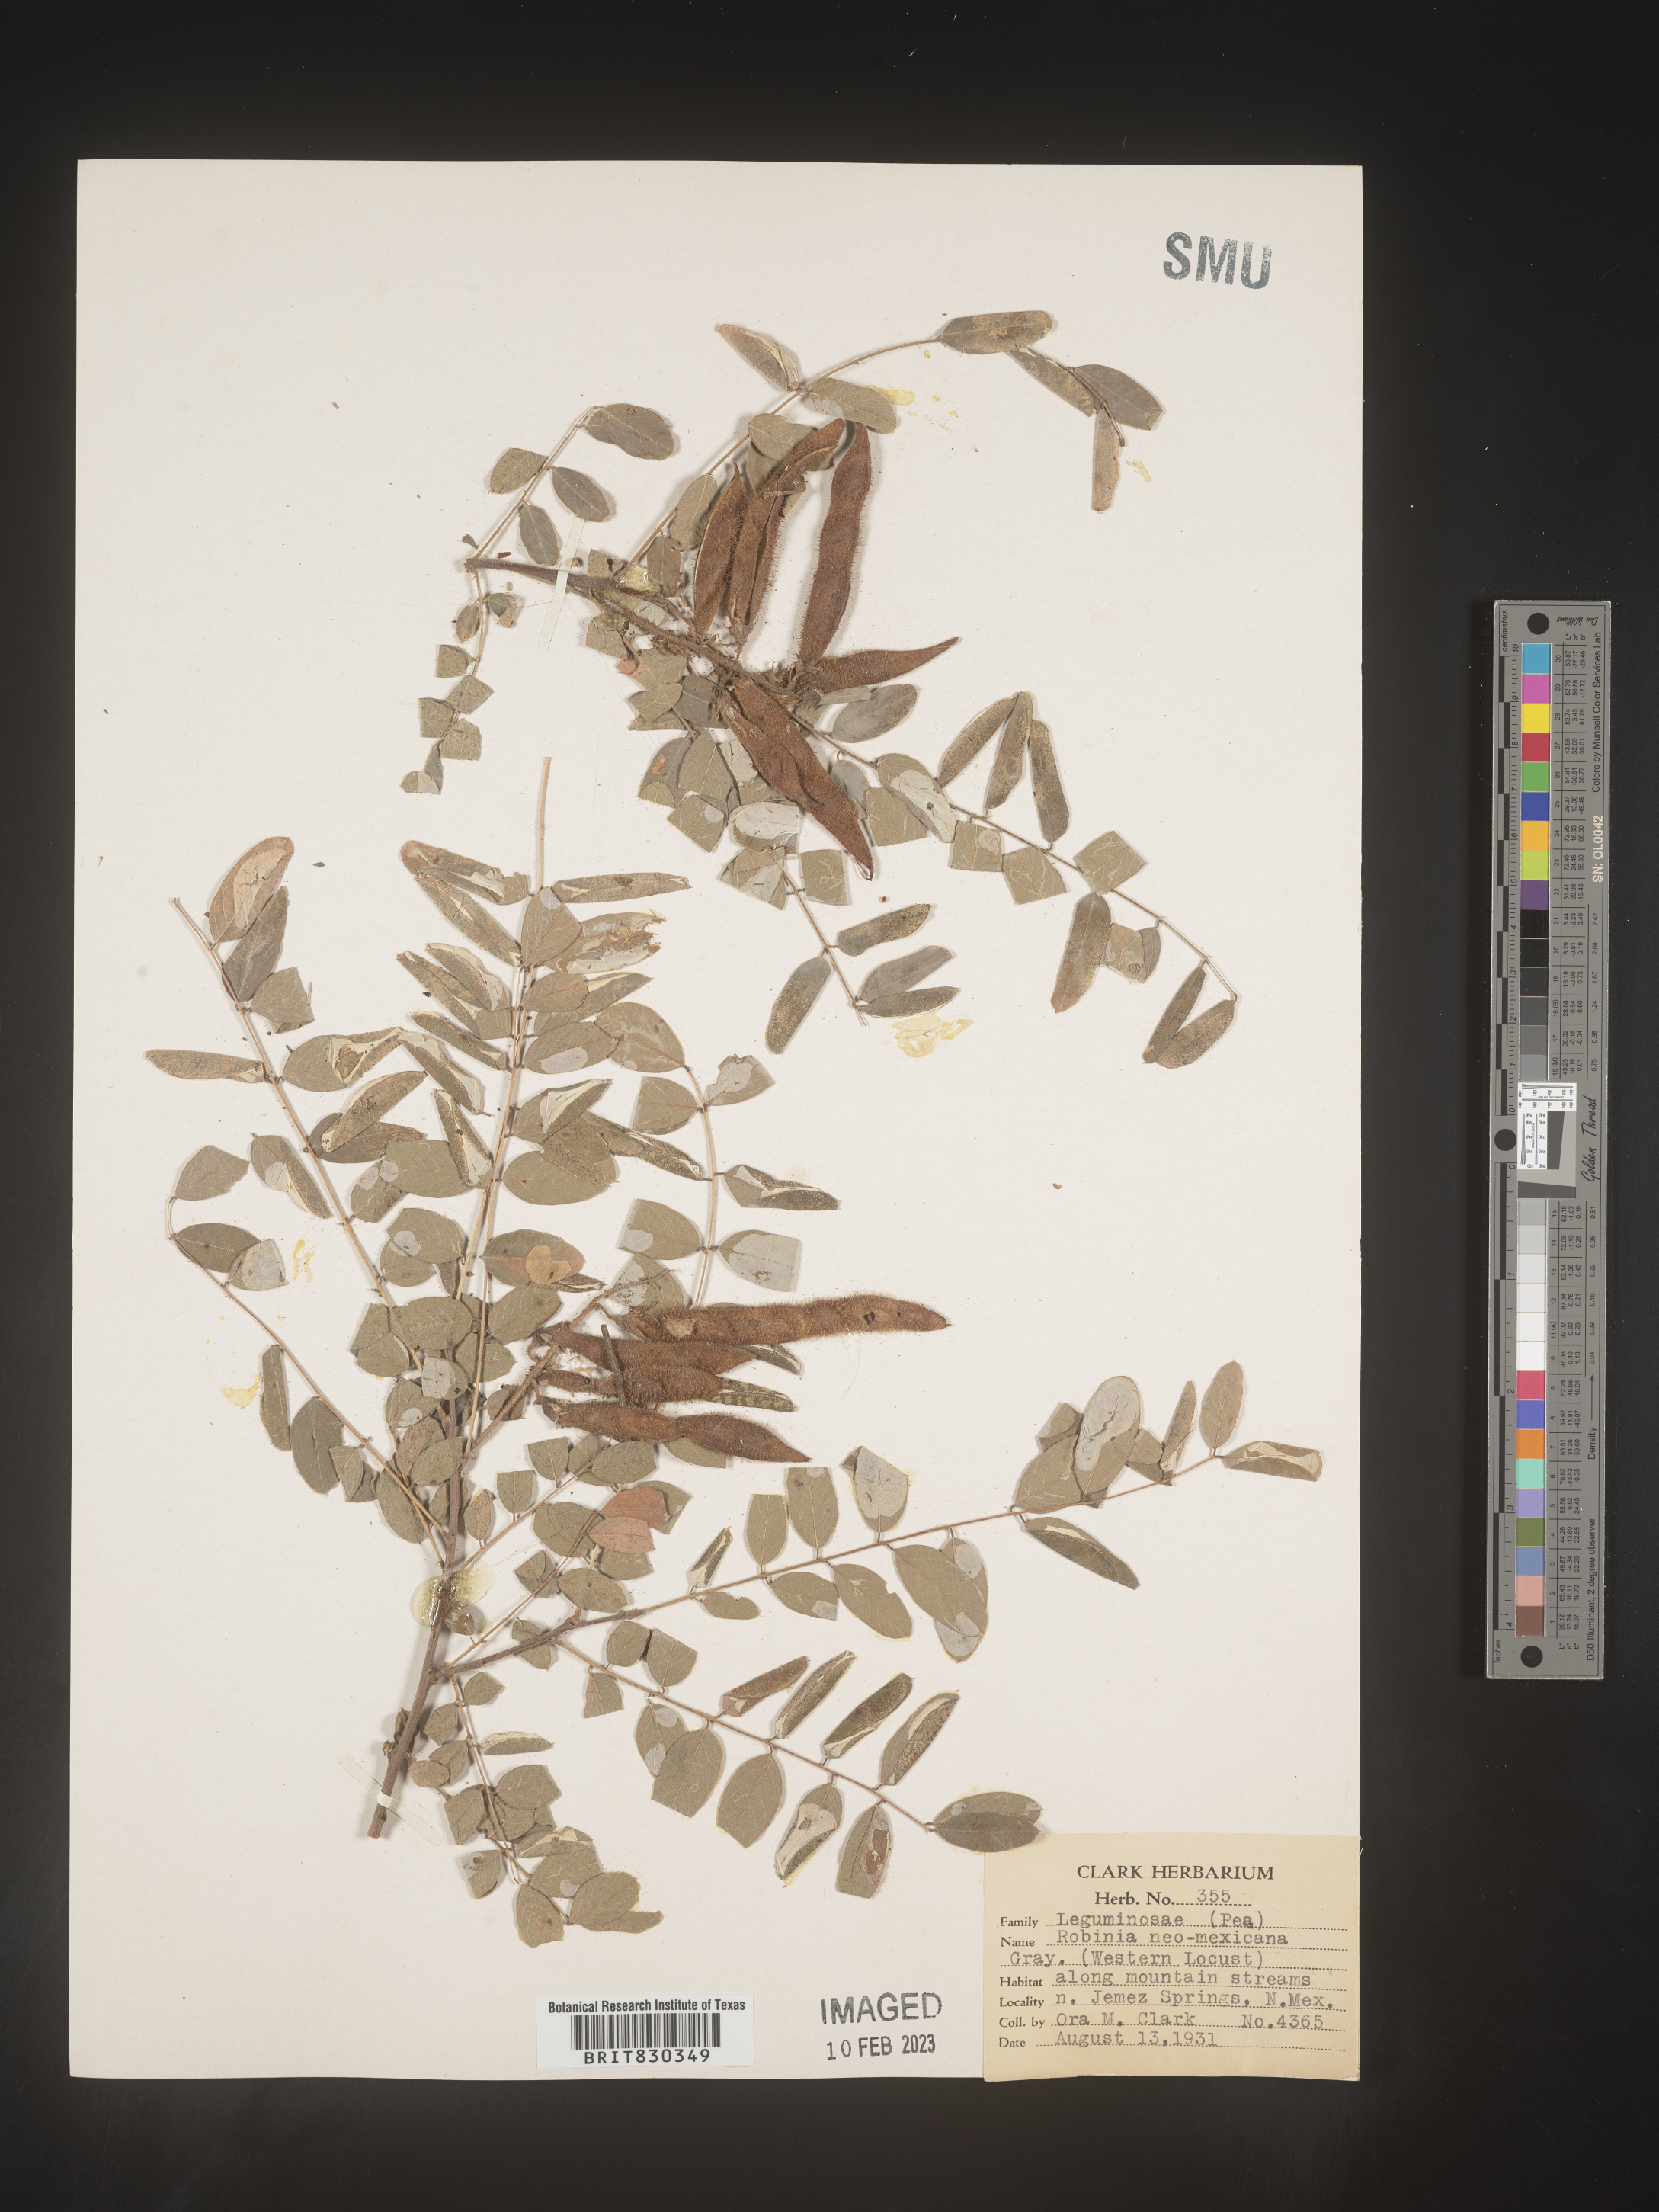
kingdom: Plantae
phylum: Tracheophyta
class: Magnoliopsida
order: Fabales
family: Fabaceae
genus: Robinia
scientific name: Robinia neomexicana
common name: New mexico locust
